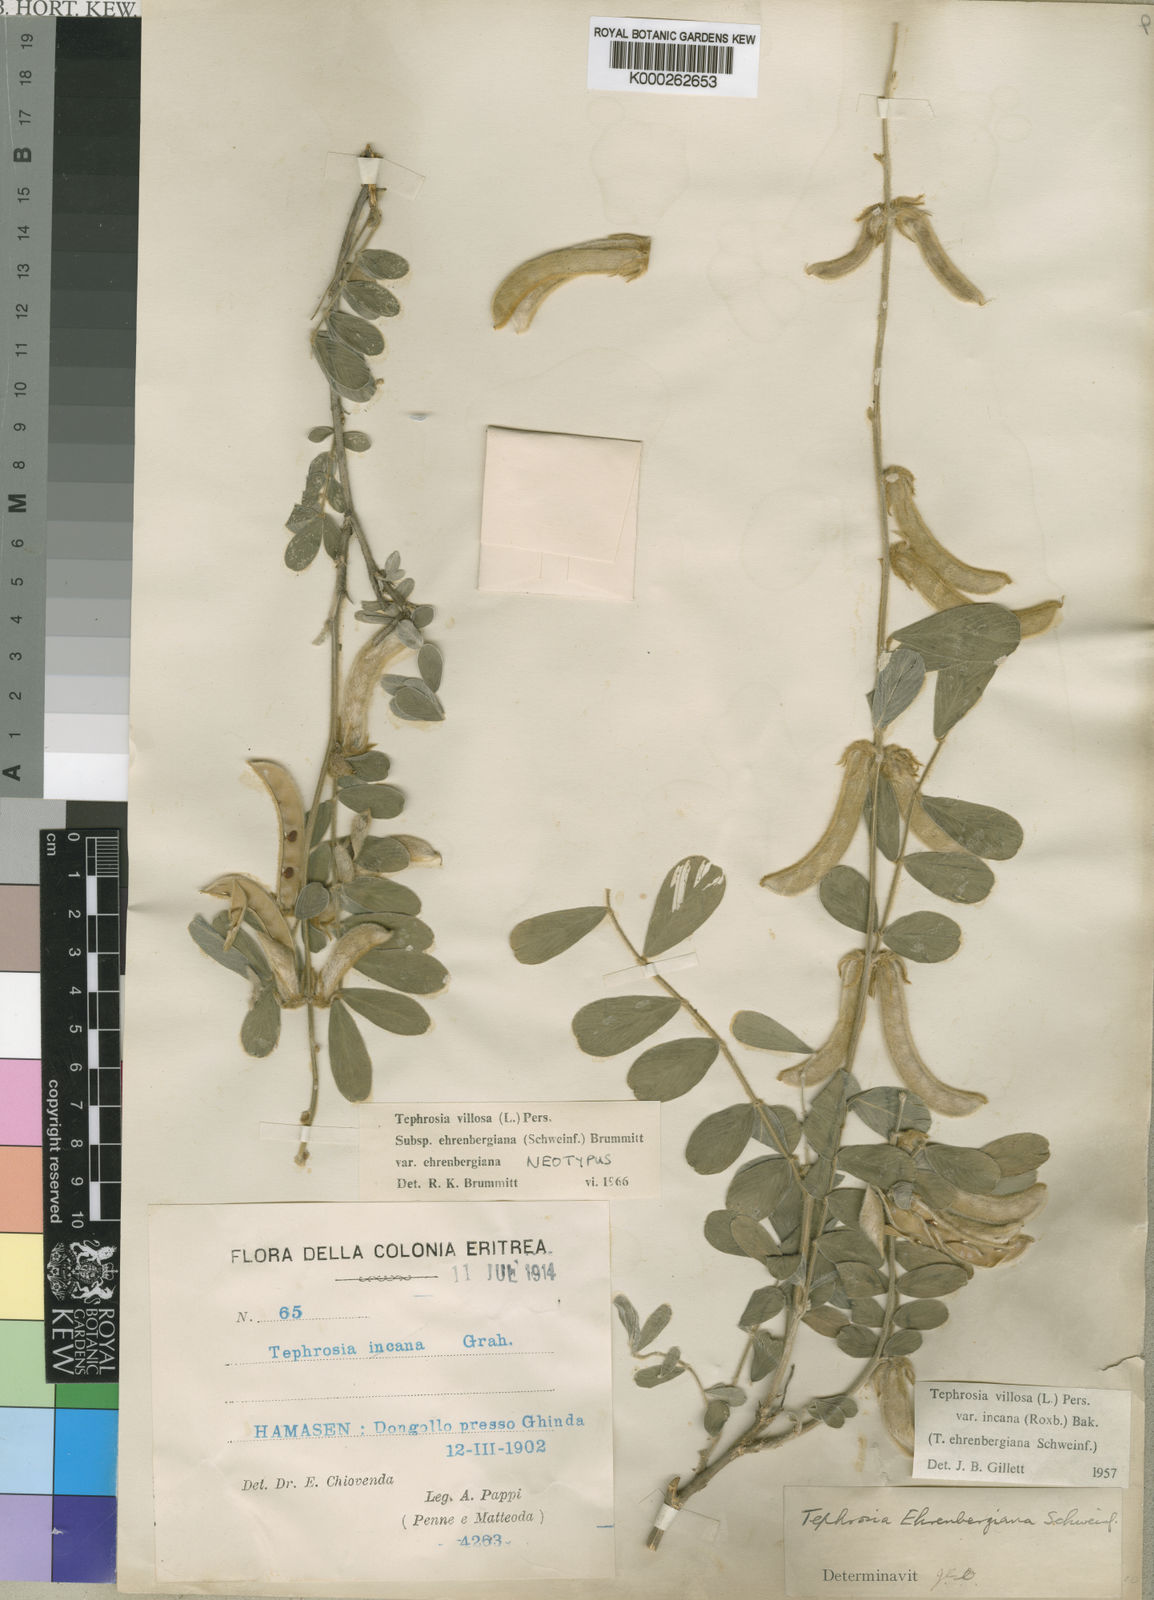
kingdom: Plantae
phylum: Tracheophyta
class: Magnoliopsida
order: Fabales
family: Fabaceae
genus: Tephrosia
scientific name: Tephrosia villosa
